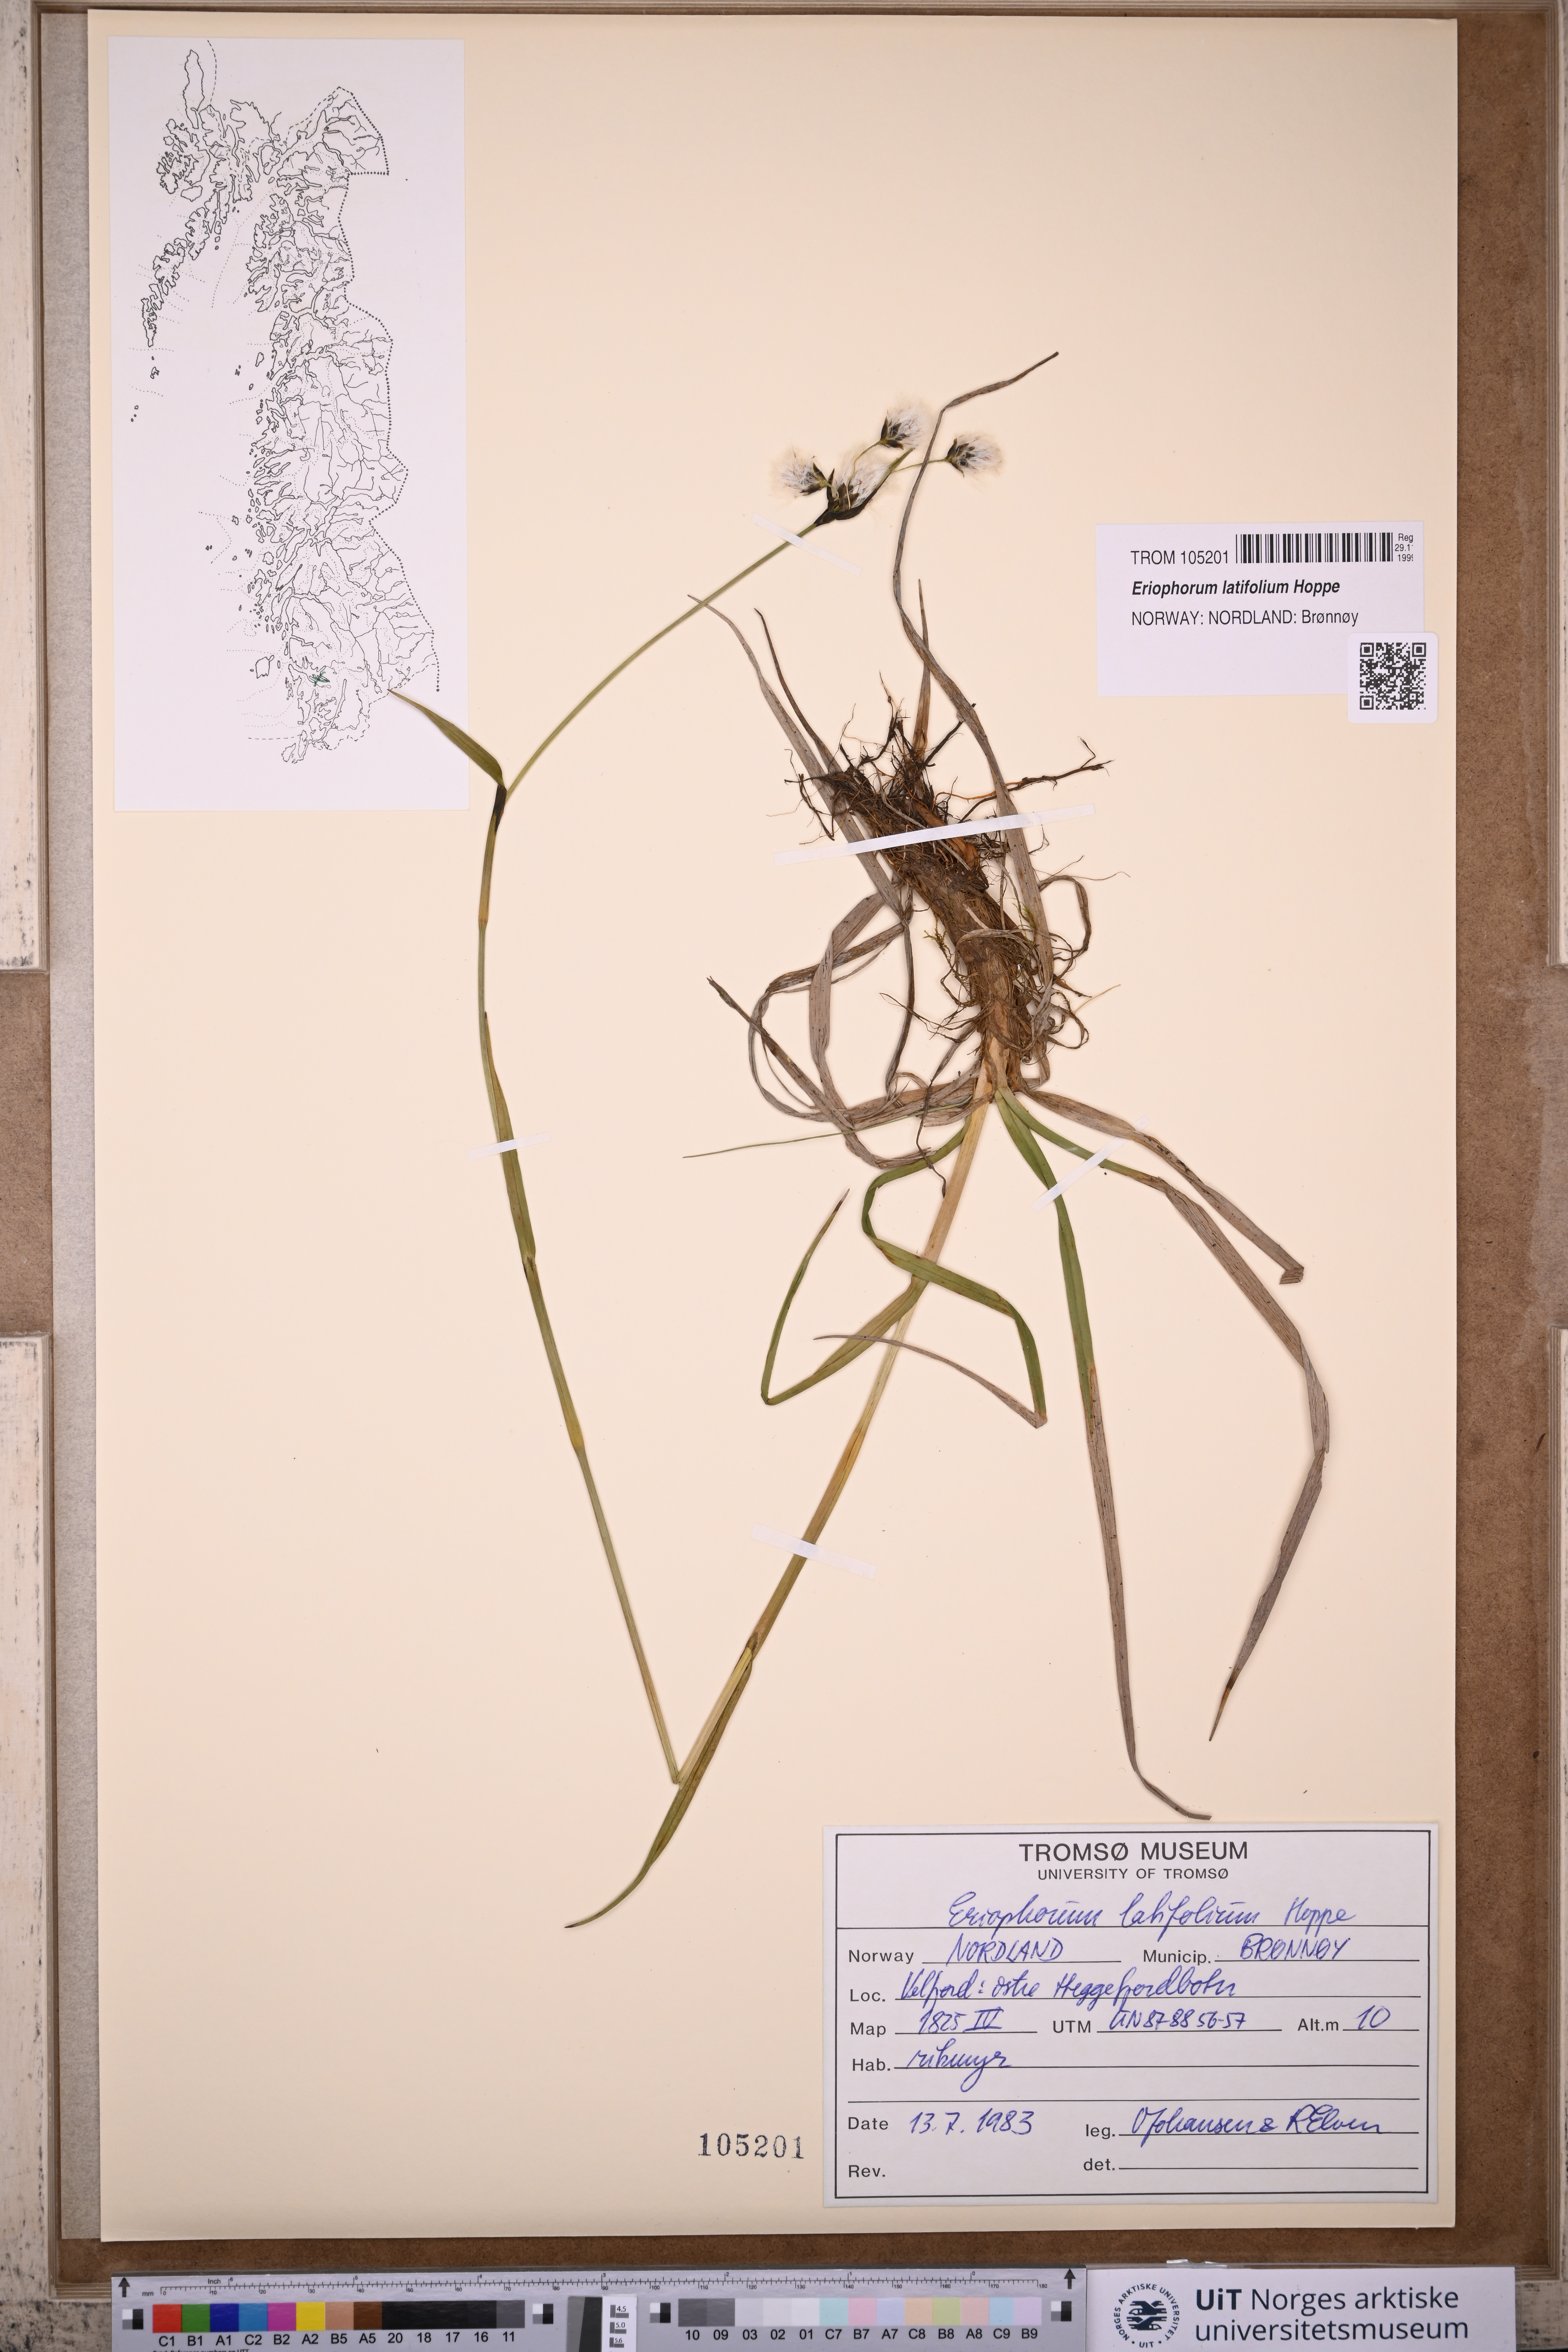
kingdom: Plantae
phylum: Tracheophyta
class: Liliopsida
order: Poales
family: Cyperaceae
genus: Eriophorum
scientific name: Eriophorum latifolium
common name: Broad-leaved cottongrass
